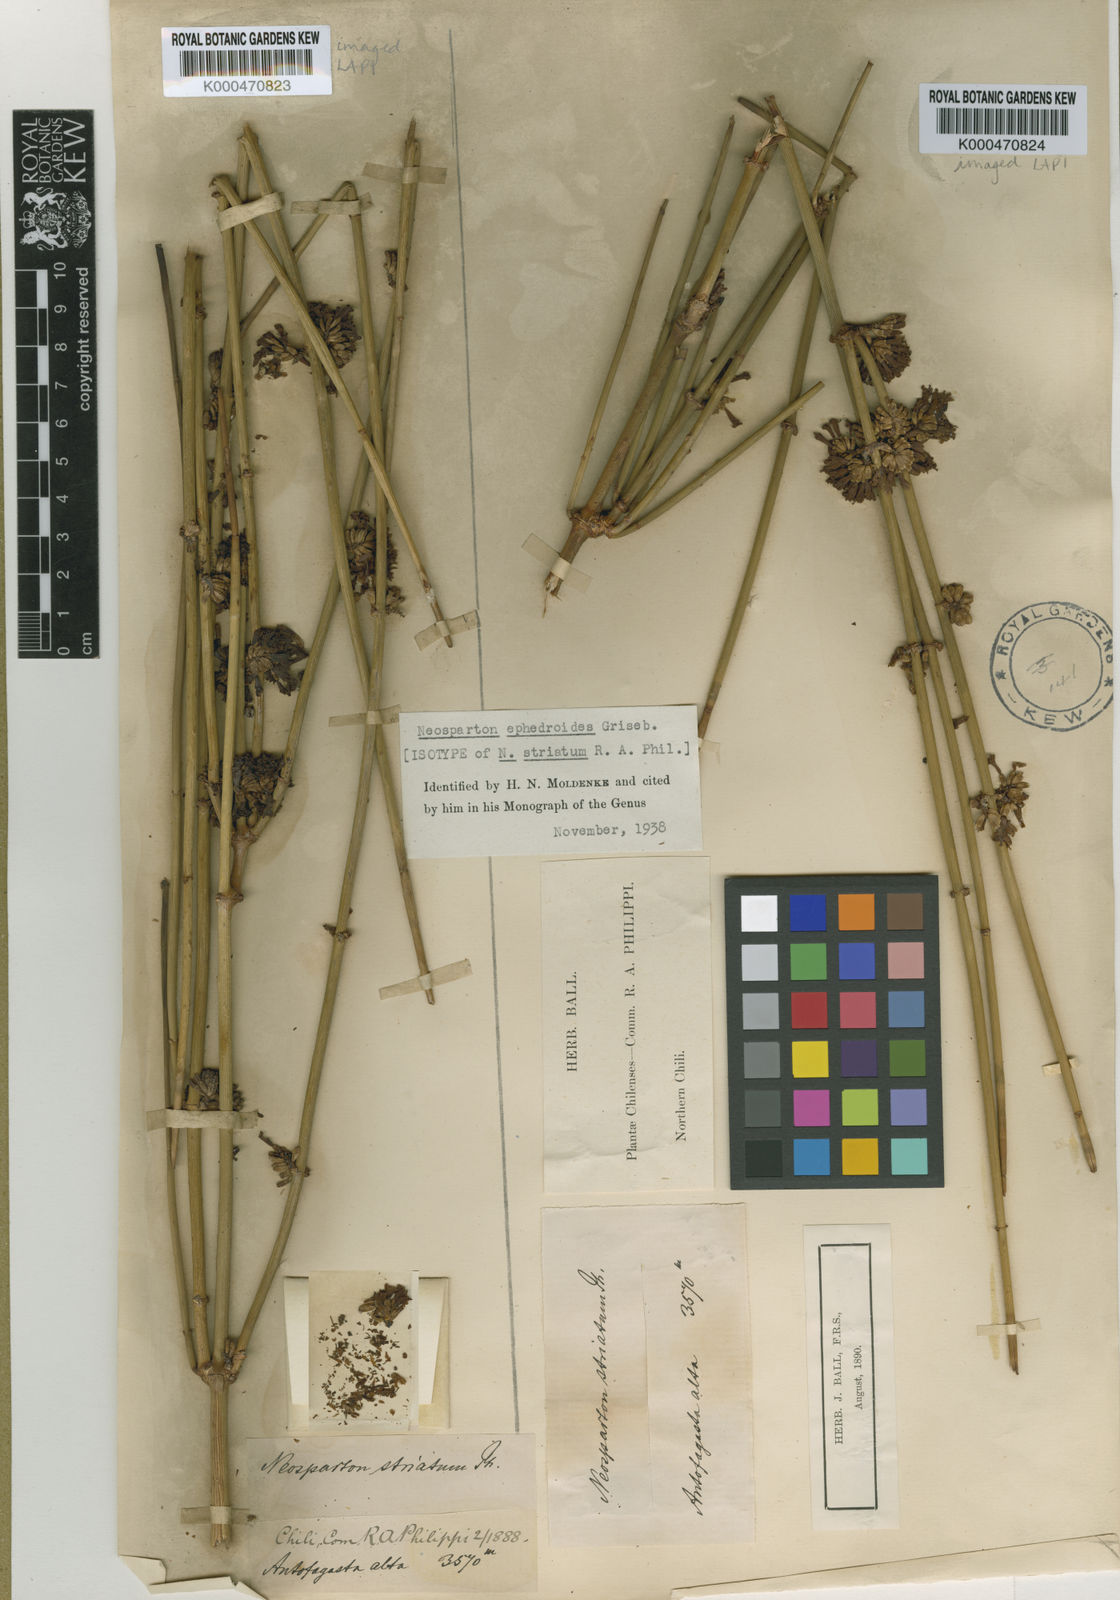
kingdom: Plantae
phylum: Tracheophyta
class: Magnoliopsida
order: Lamiales
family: Verbenaceae
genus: Neosparton
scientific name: Neosparton ephedroides
